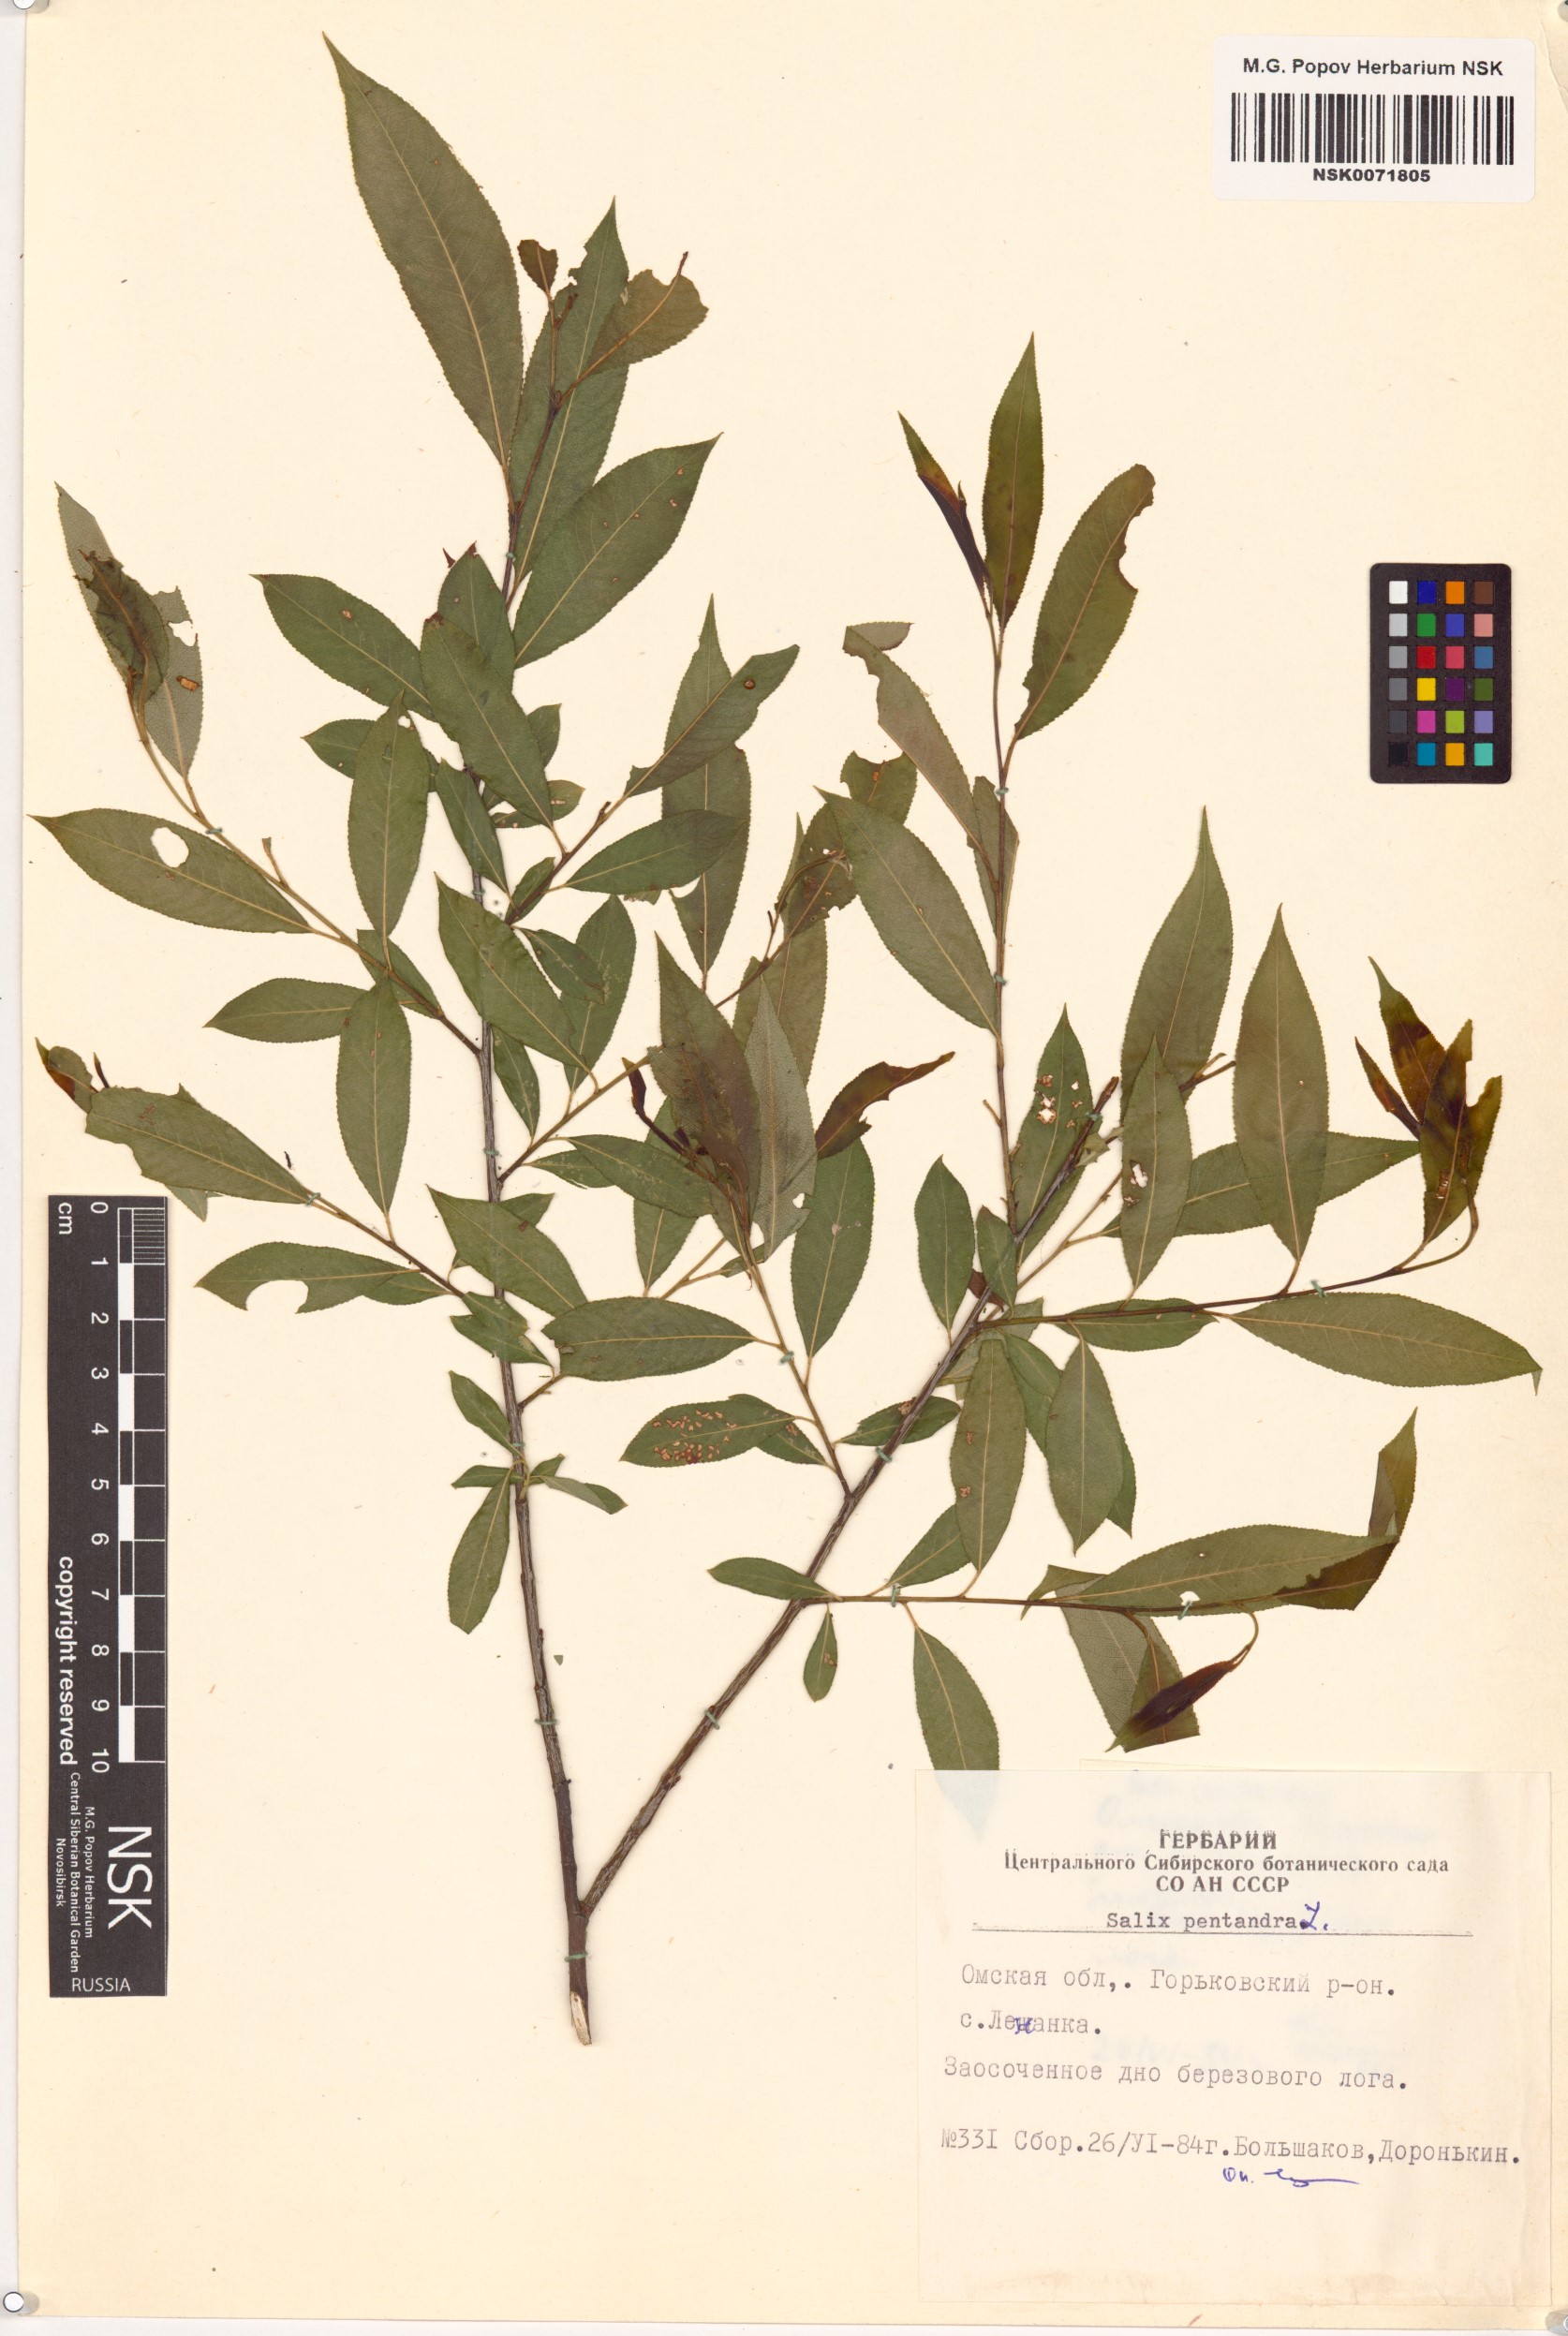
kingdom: Plantae
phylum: Tracheophyta
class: Magnoliopsida
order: Malpighiales
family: Salicaceae
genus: Salix
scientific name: Salix pentandra
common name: Bay willow
